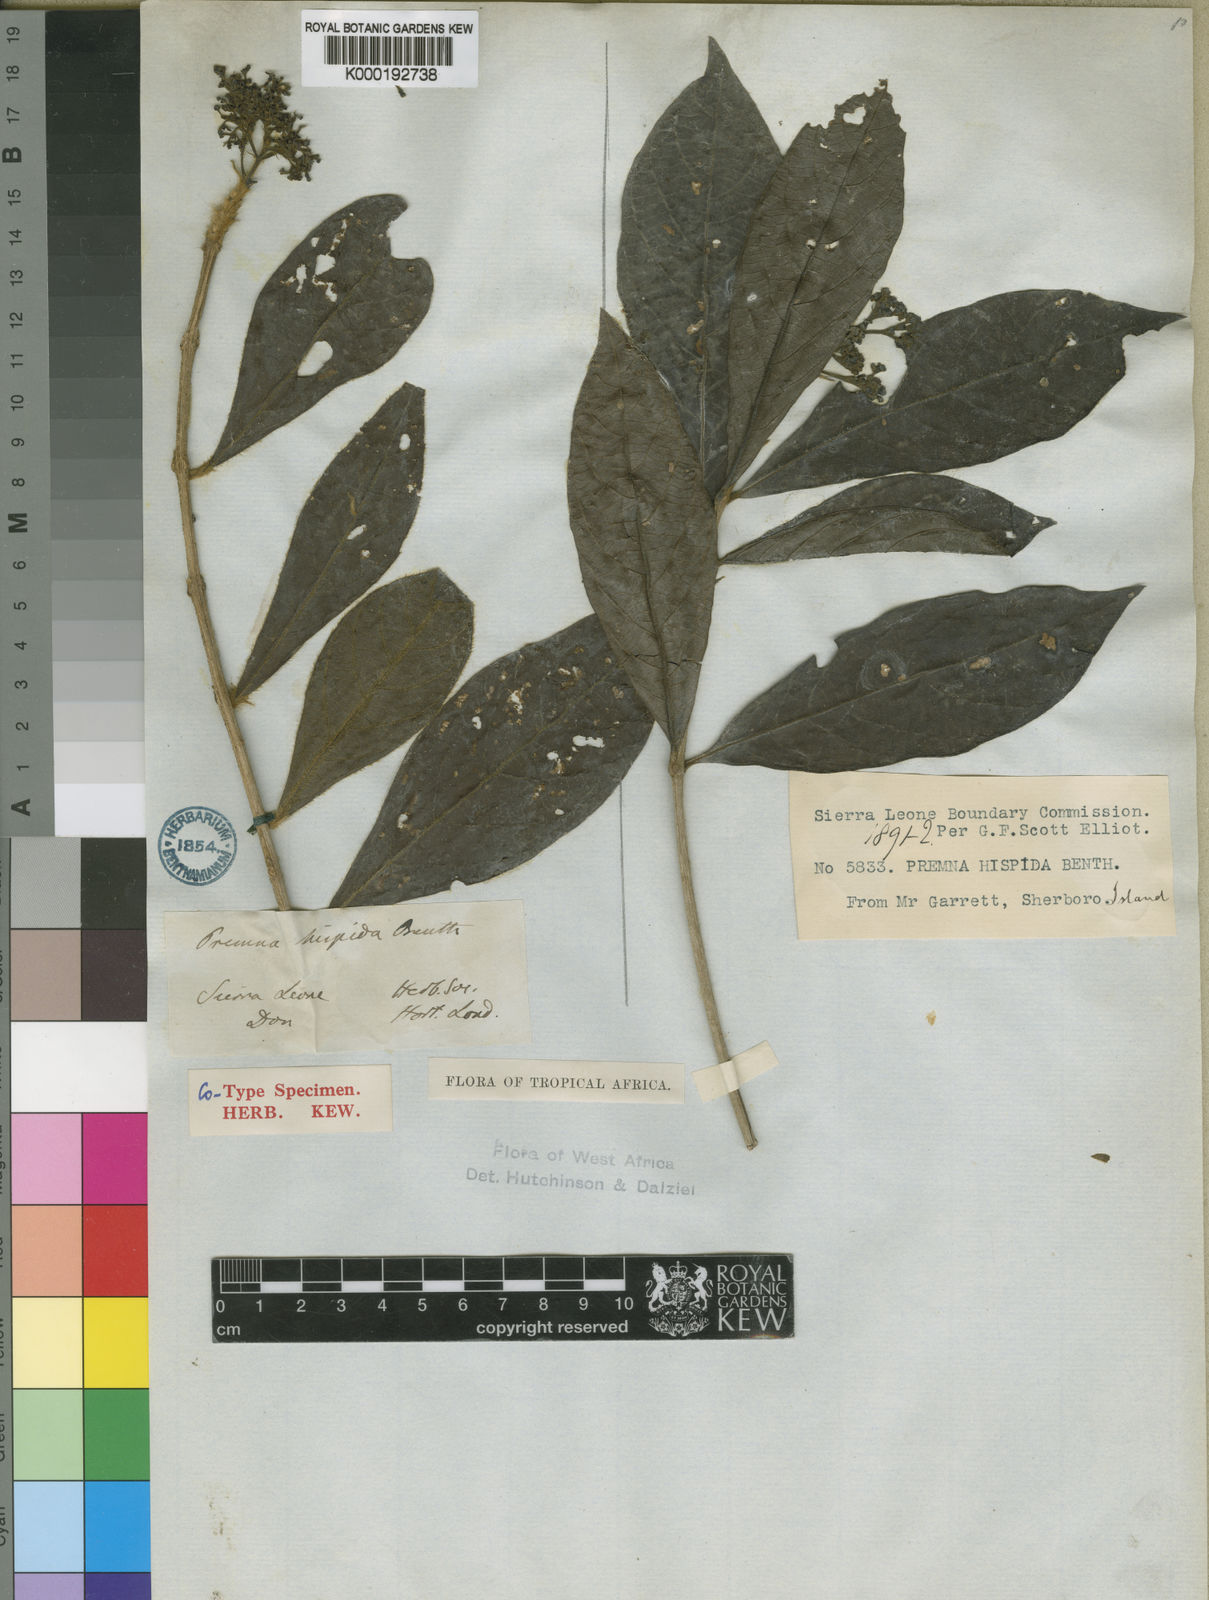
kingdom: Plantae
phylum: Tracheophyta
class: Magnoliopsida
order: Lamiales
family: Lamiaceae
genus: Premna
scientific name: Premna hispida
